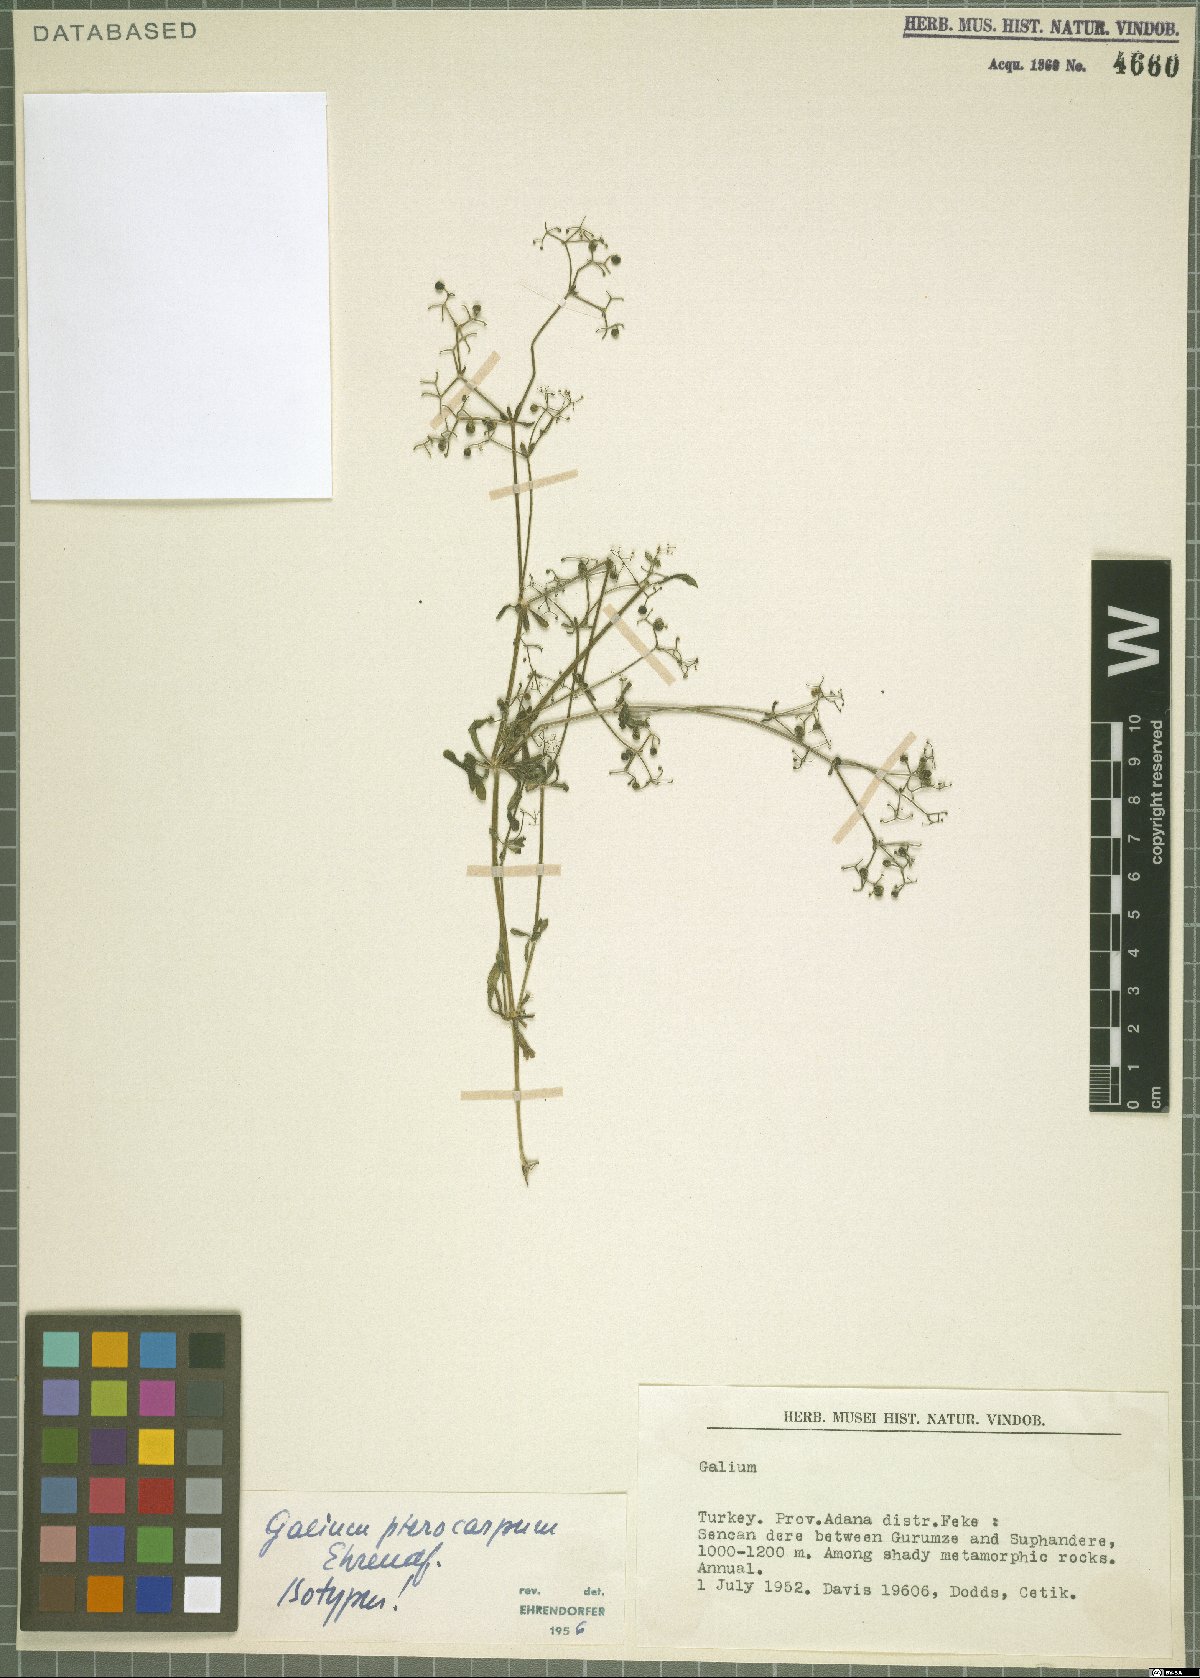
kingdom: Plantae
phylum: Tracheophyta
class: Magnoliopsida
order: Gentianales
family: Rubiaceae
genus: Galium
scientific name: Galium pterocarpum
